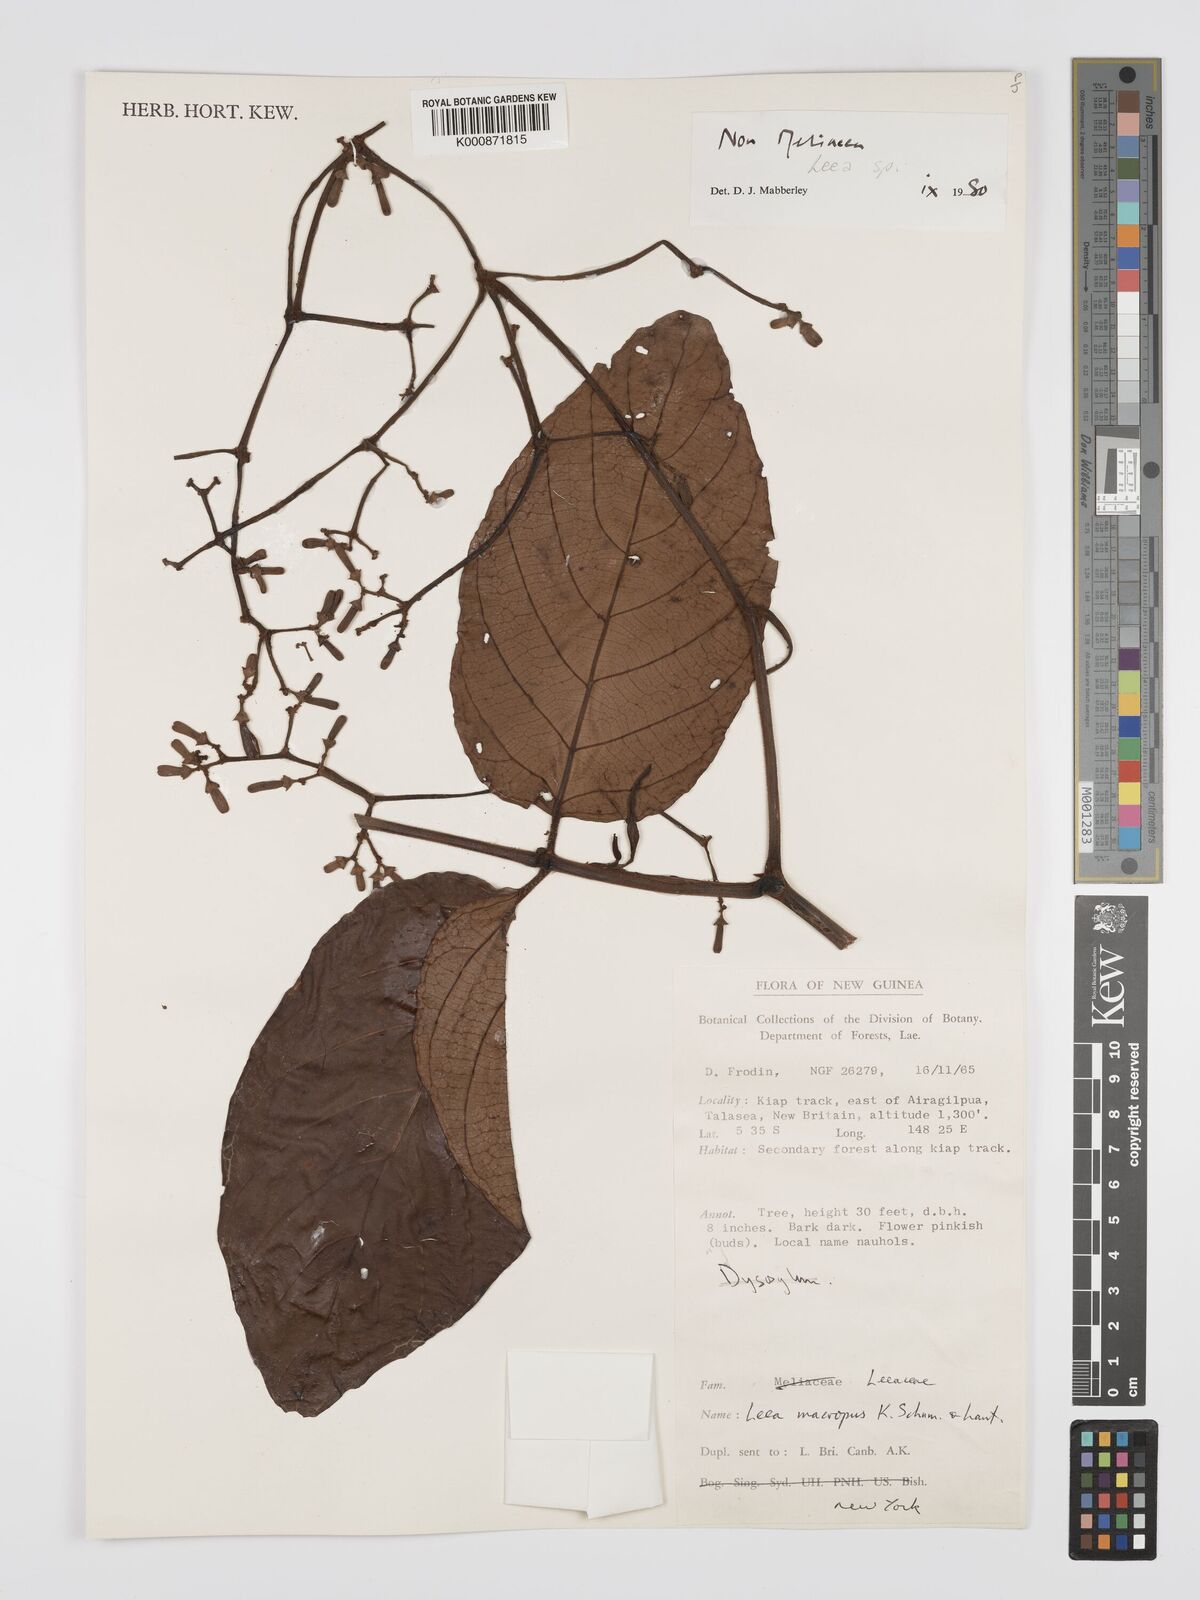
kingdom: Plantae
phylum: Tracheophyta
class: Magnoliopsida
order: Vitales
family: Vitaceae
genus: Leea
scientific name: Leea macropus
